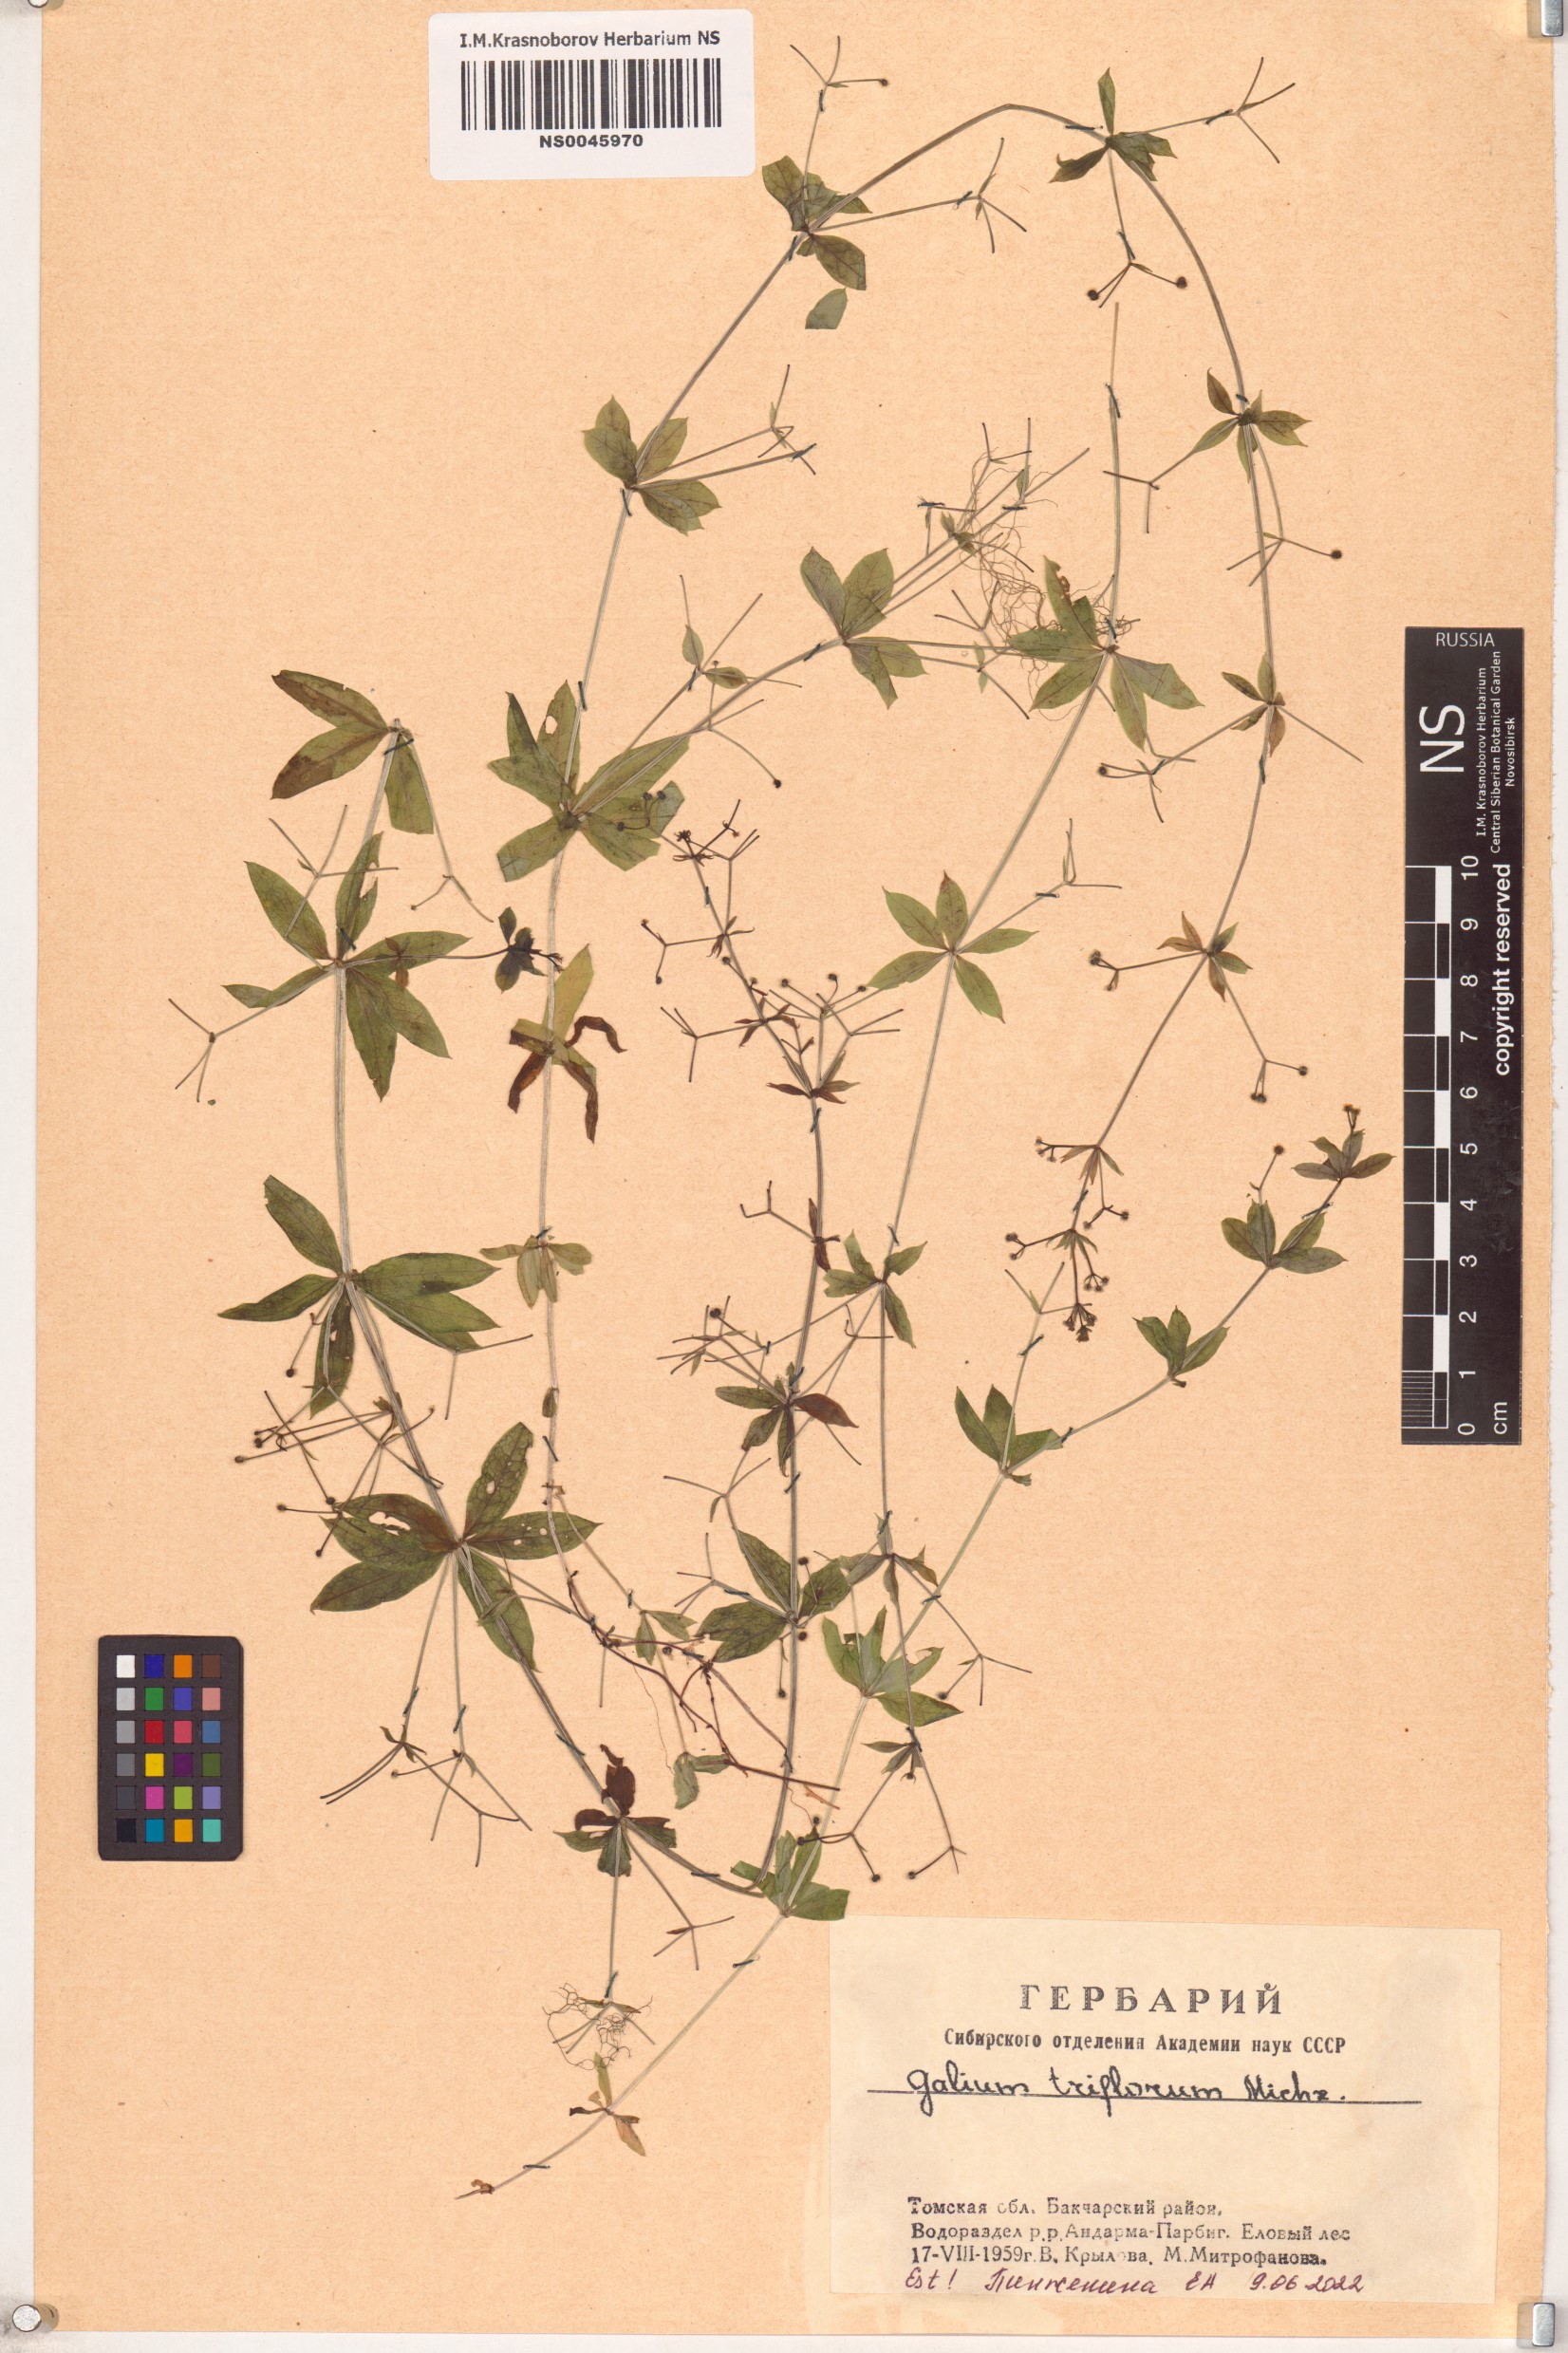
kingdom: Plantae
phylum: Tracheophyta
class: Magnoliopsida
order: Gentianales
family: Rubiaceae
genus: Galium
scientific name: Galium triflorum
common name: Fragrant bedstraw
